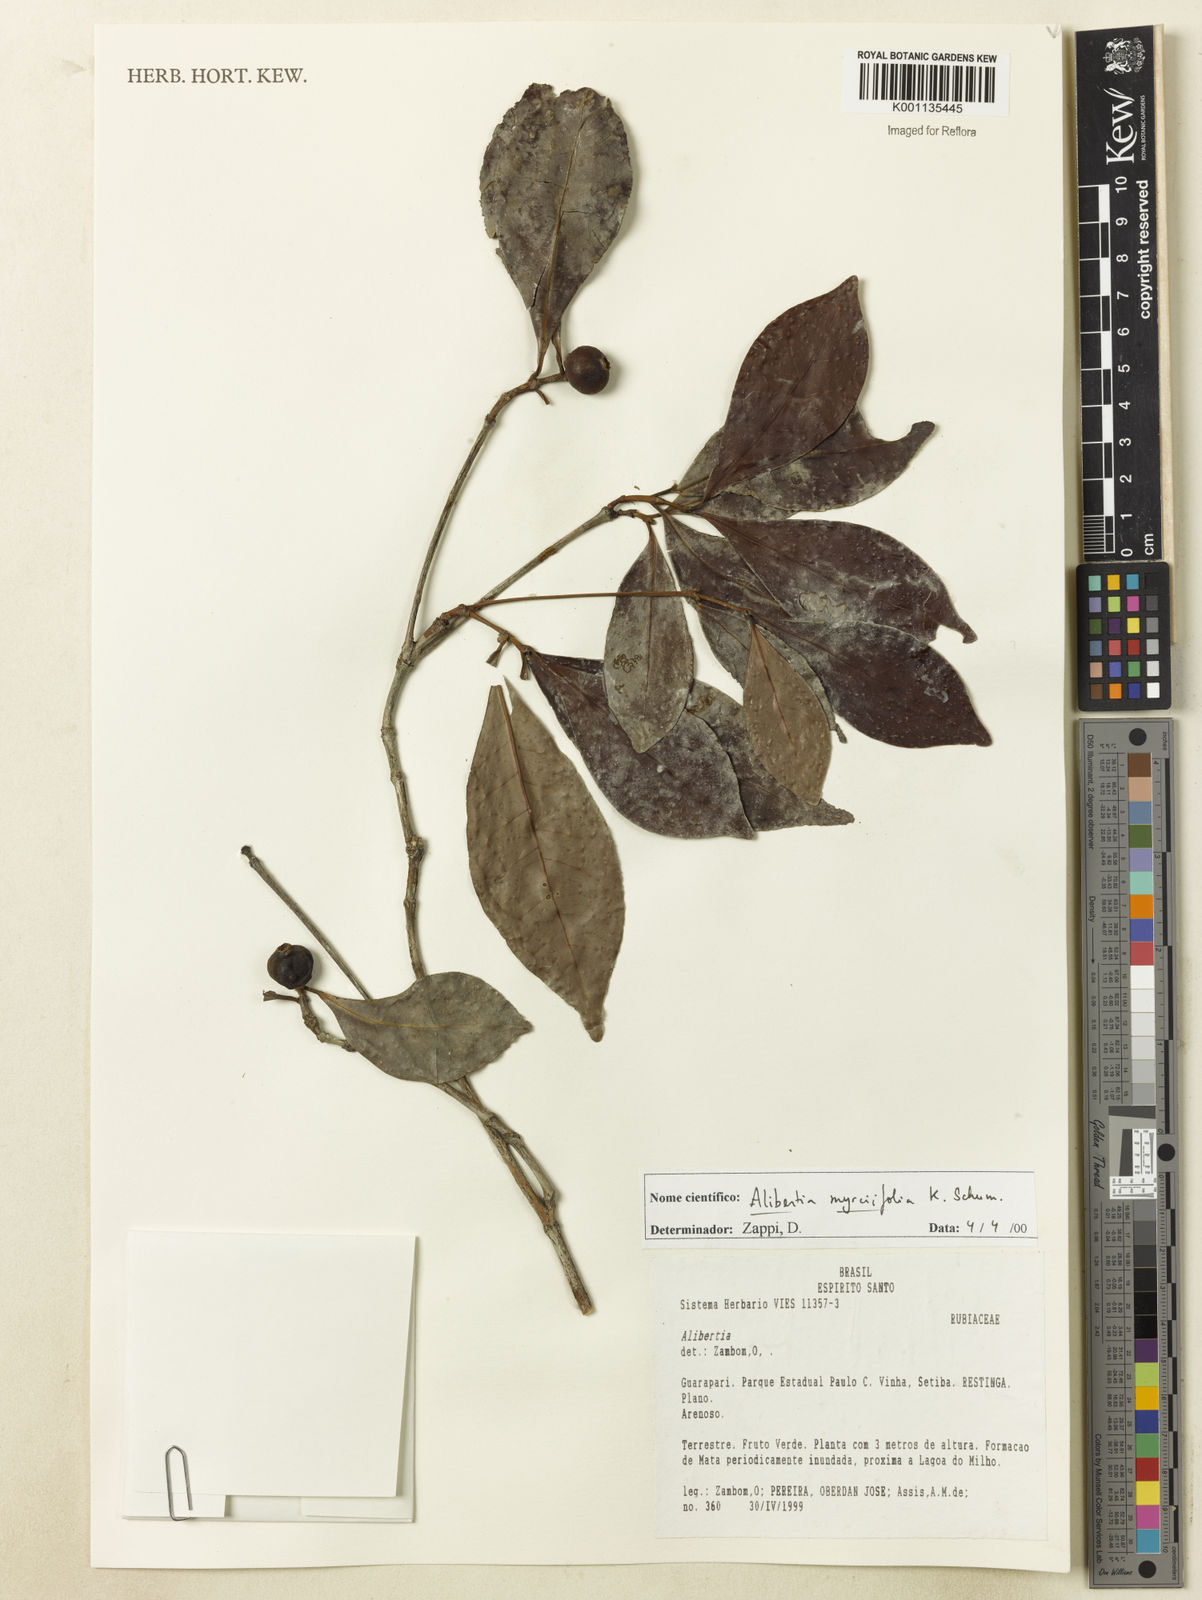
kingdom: Plantae
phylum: Tracheophyta
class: Magnoliopsida
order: Gentianales
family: Rubiaceae
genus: Cordiera
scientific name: Cordiera myrciifolia
